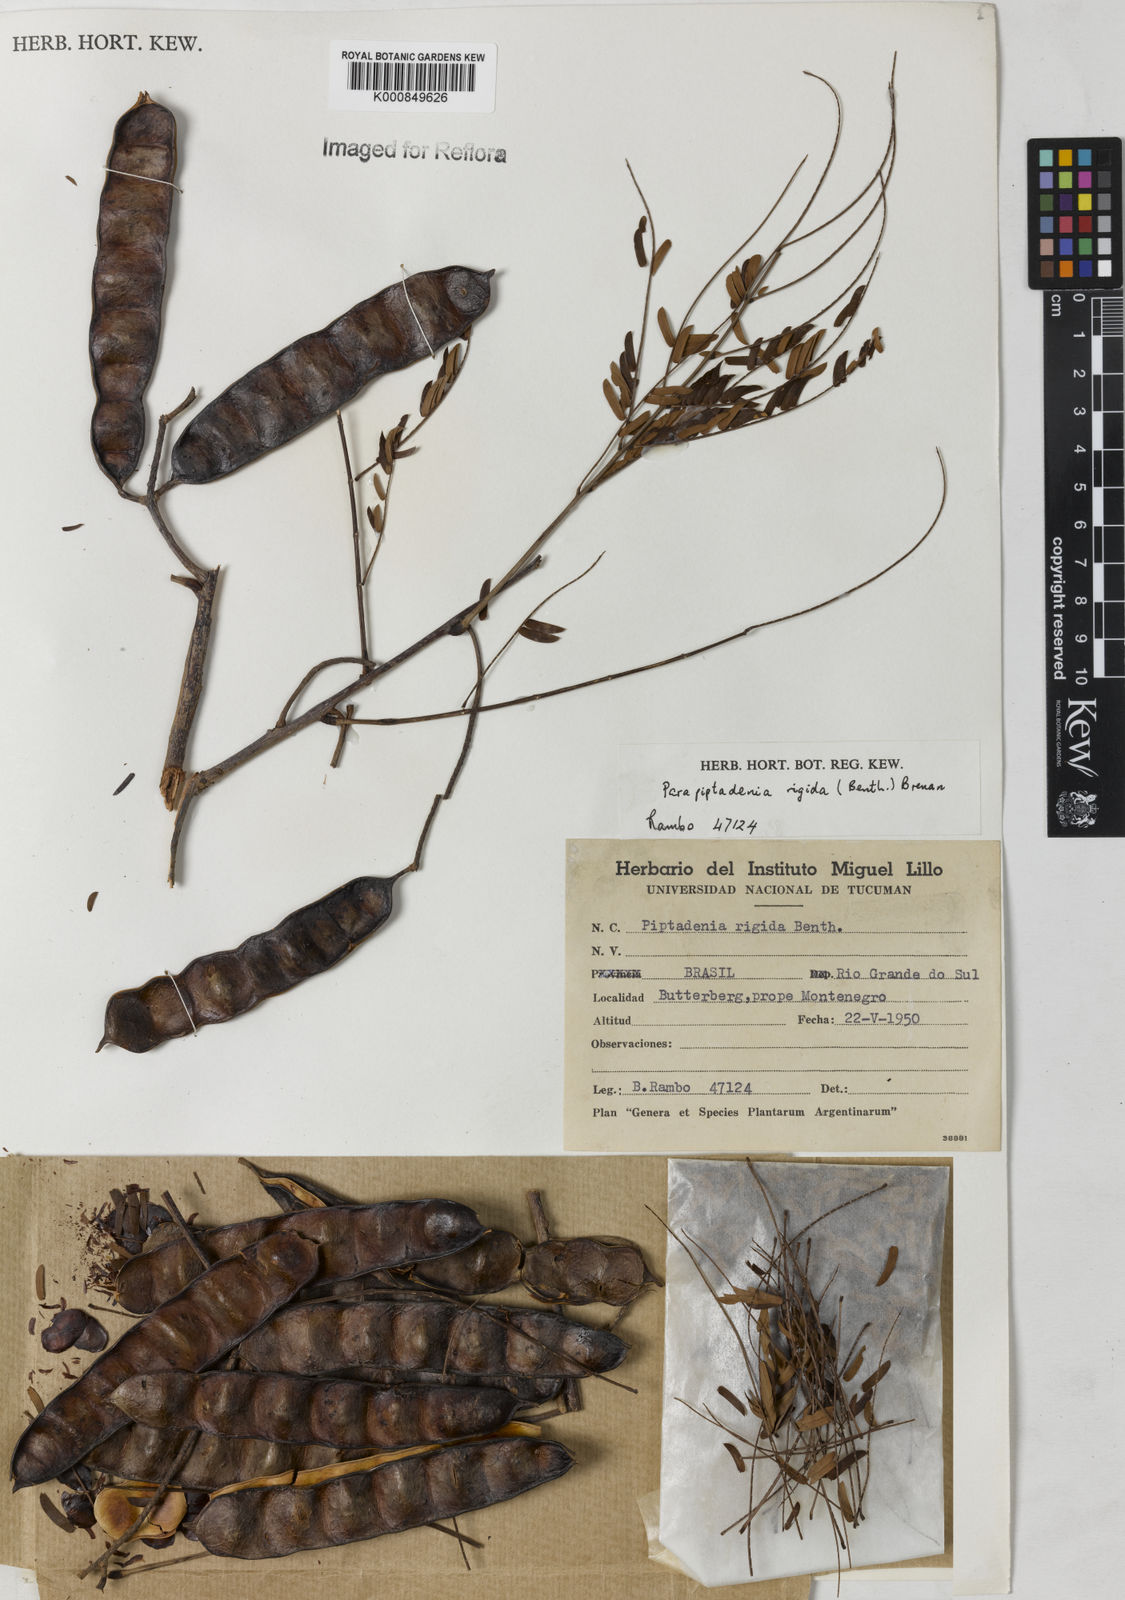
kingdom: Plantae
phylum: Tracheophyta
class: Magnoliopsida
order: Fabales
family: Fabaceae
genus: Parapiptadenia
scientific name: Parapiptadenia rigida
